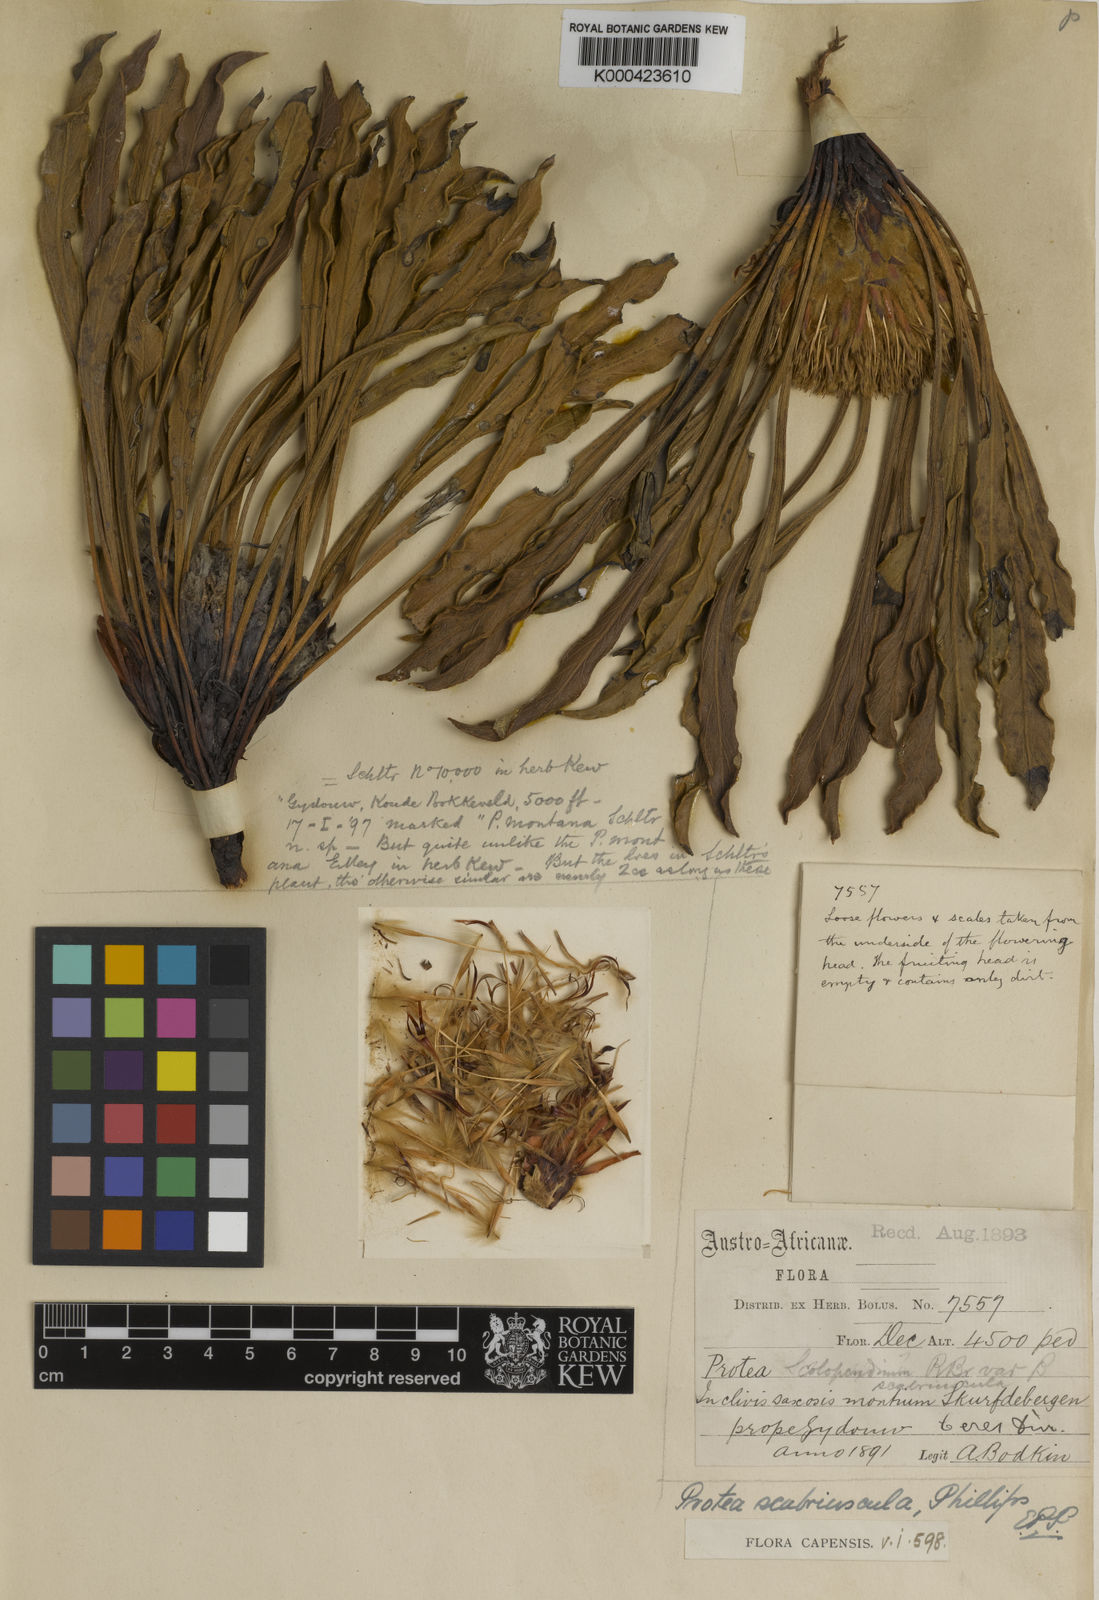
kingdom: Plantae
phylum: Tracheophyta
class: Magnoliopsida
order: Proteales
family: Proteaceae
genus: Protea
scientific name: Protea scabriuscula
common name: Hoary sugarbush
